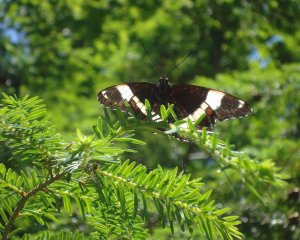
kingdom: Animalia
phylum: Arthropoda
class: Insecta
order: Lepidoptera
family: Nymphalidae
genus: Limenitis
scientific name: Limenitis arthemis
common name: Red-spotted Admiral
